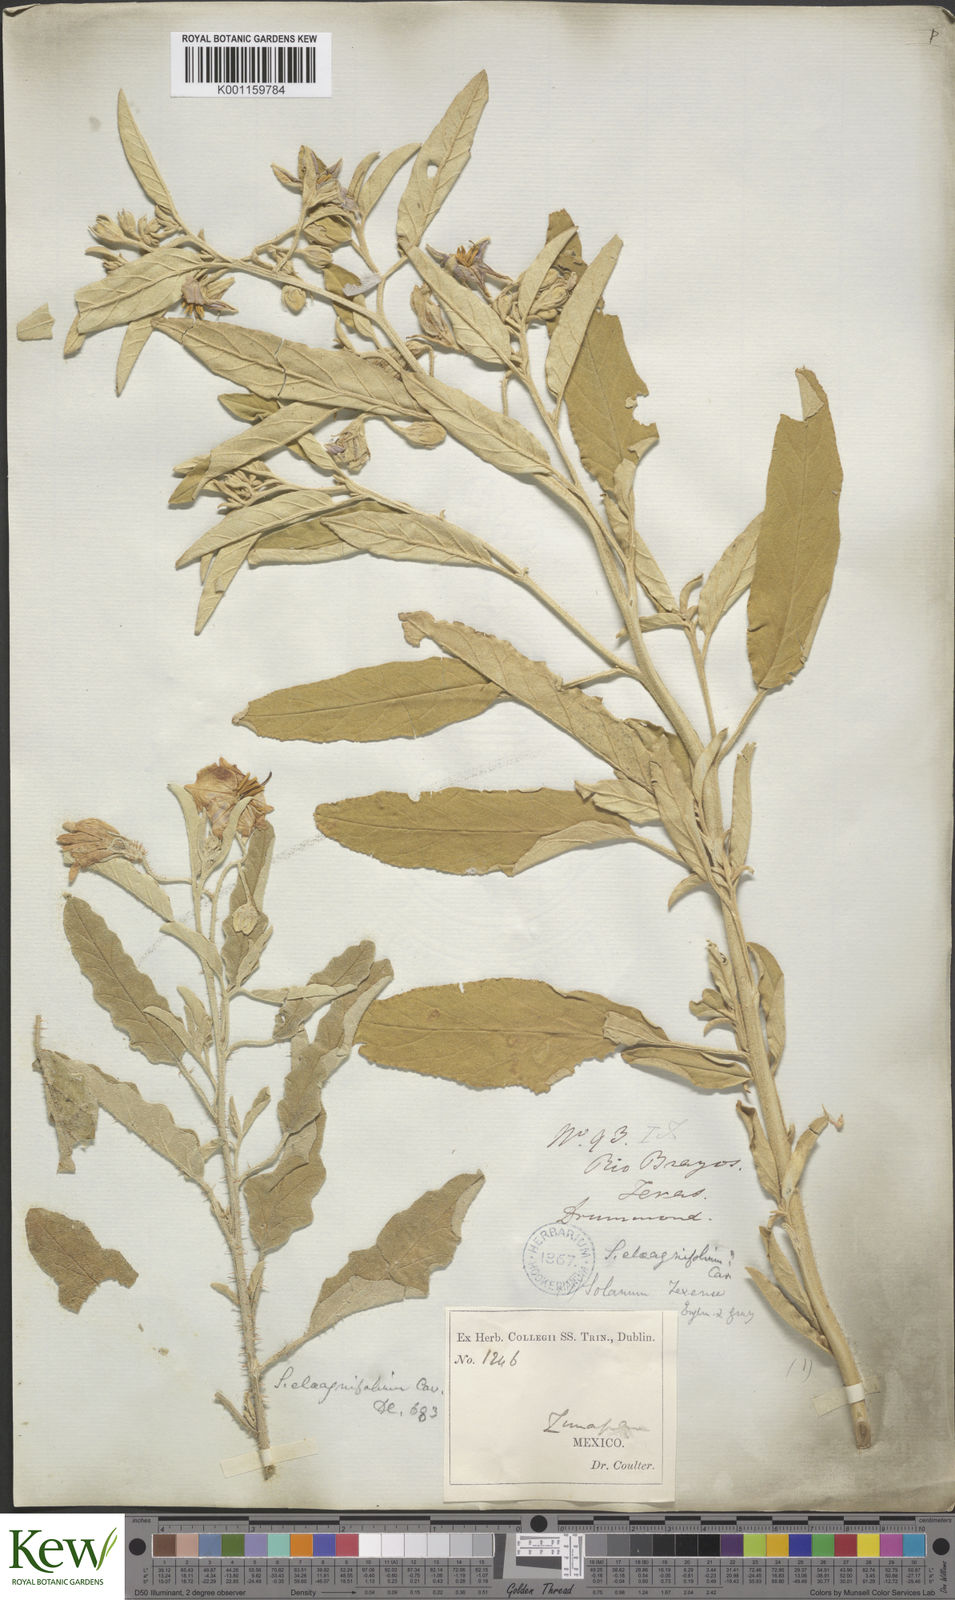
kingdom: Plantae
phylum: Tracheophyta
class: Magnoliopsida
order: Solanales
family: Solanaceae
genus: Solanum
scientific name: Solanum
